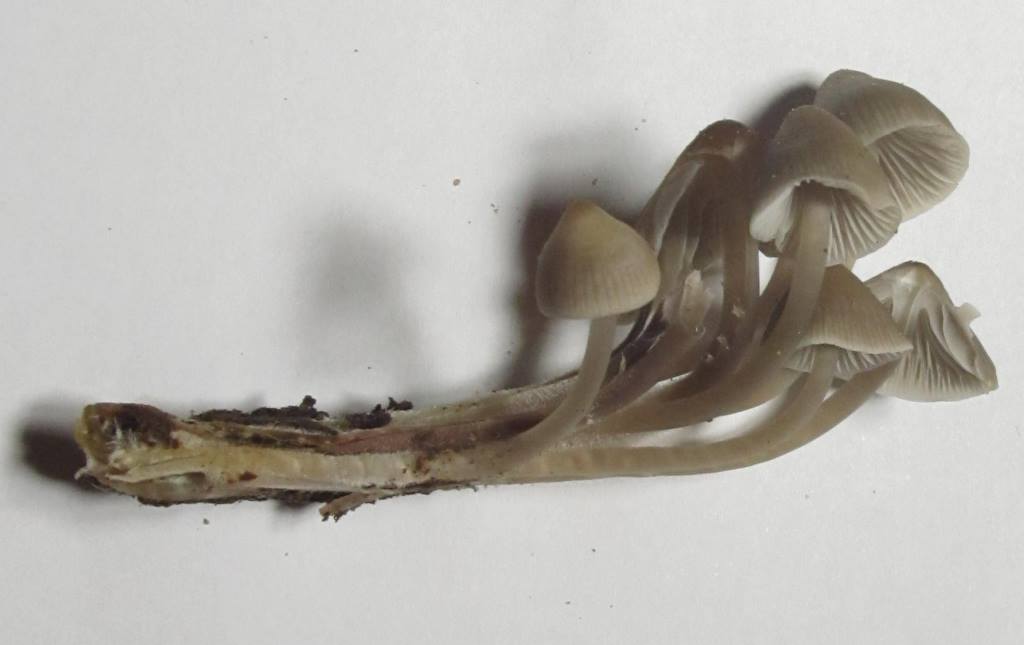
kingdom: Fungi
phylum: Basidiomycota
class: Agaricomycetes
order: Agaricales
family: Mycenaceae
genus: Mycena
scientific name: Mycena galericulata
